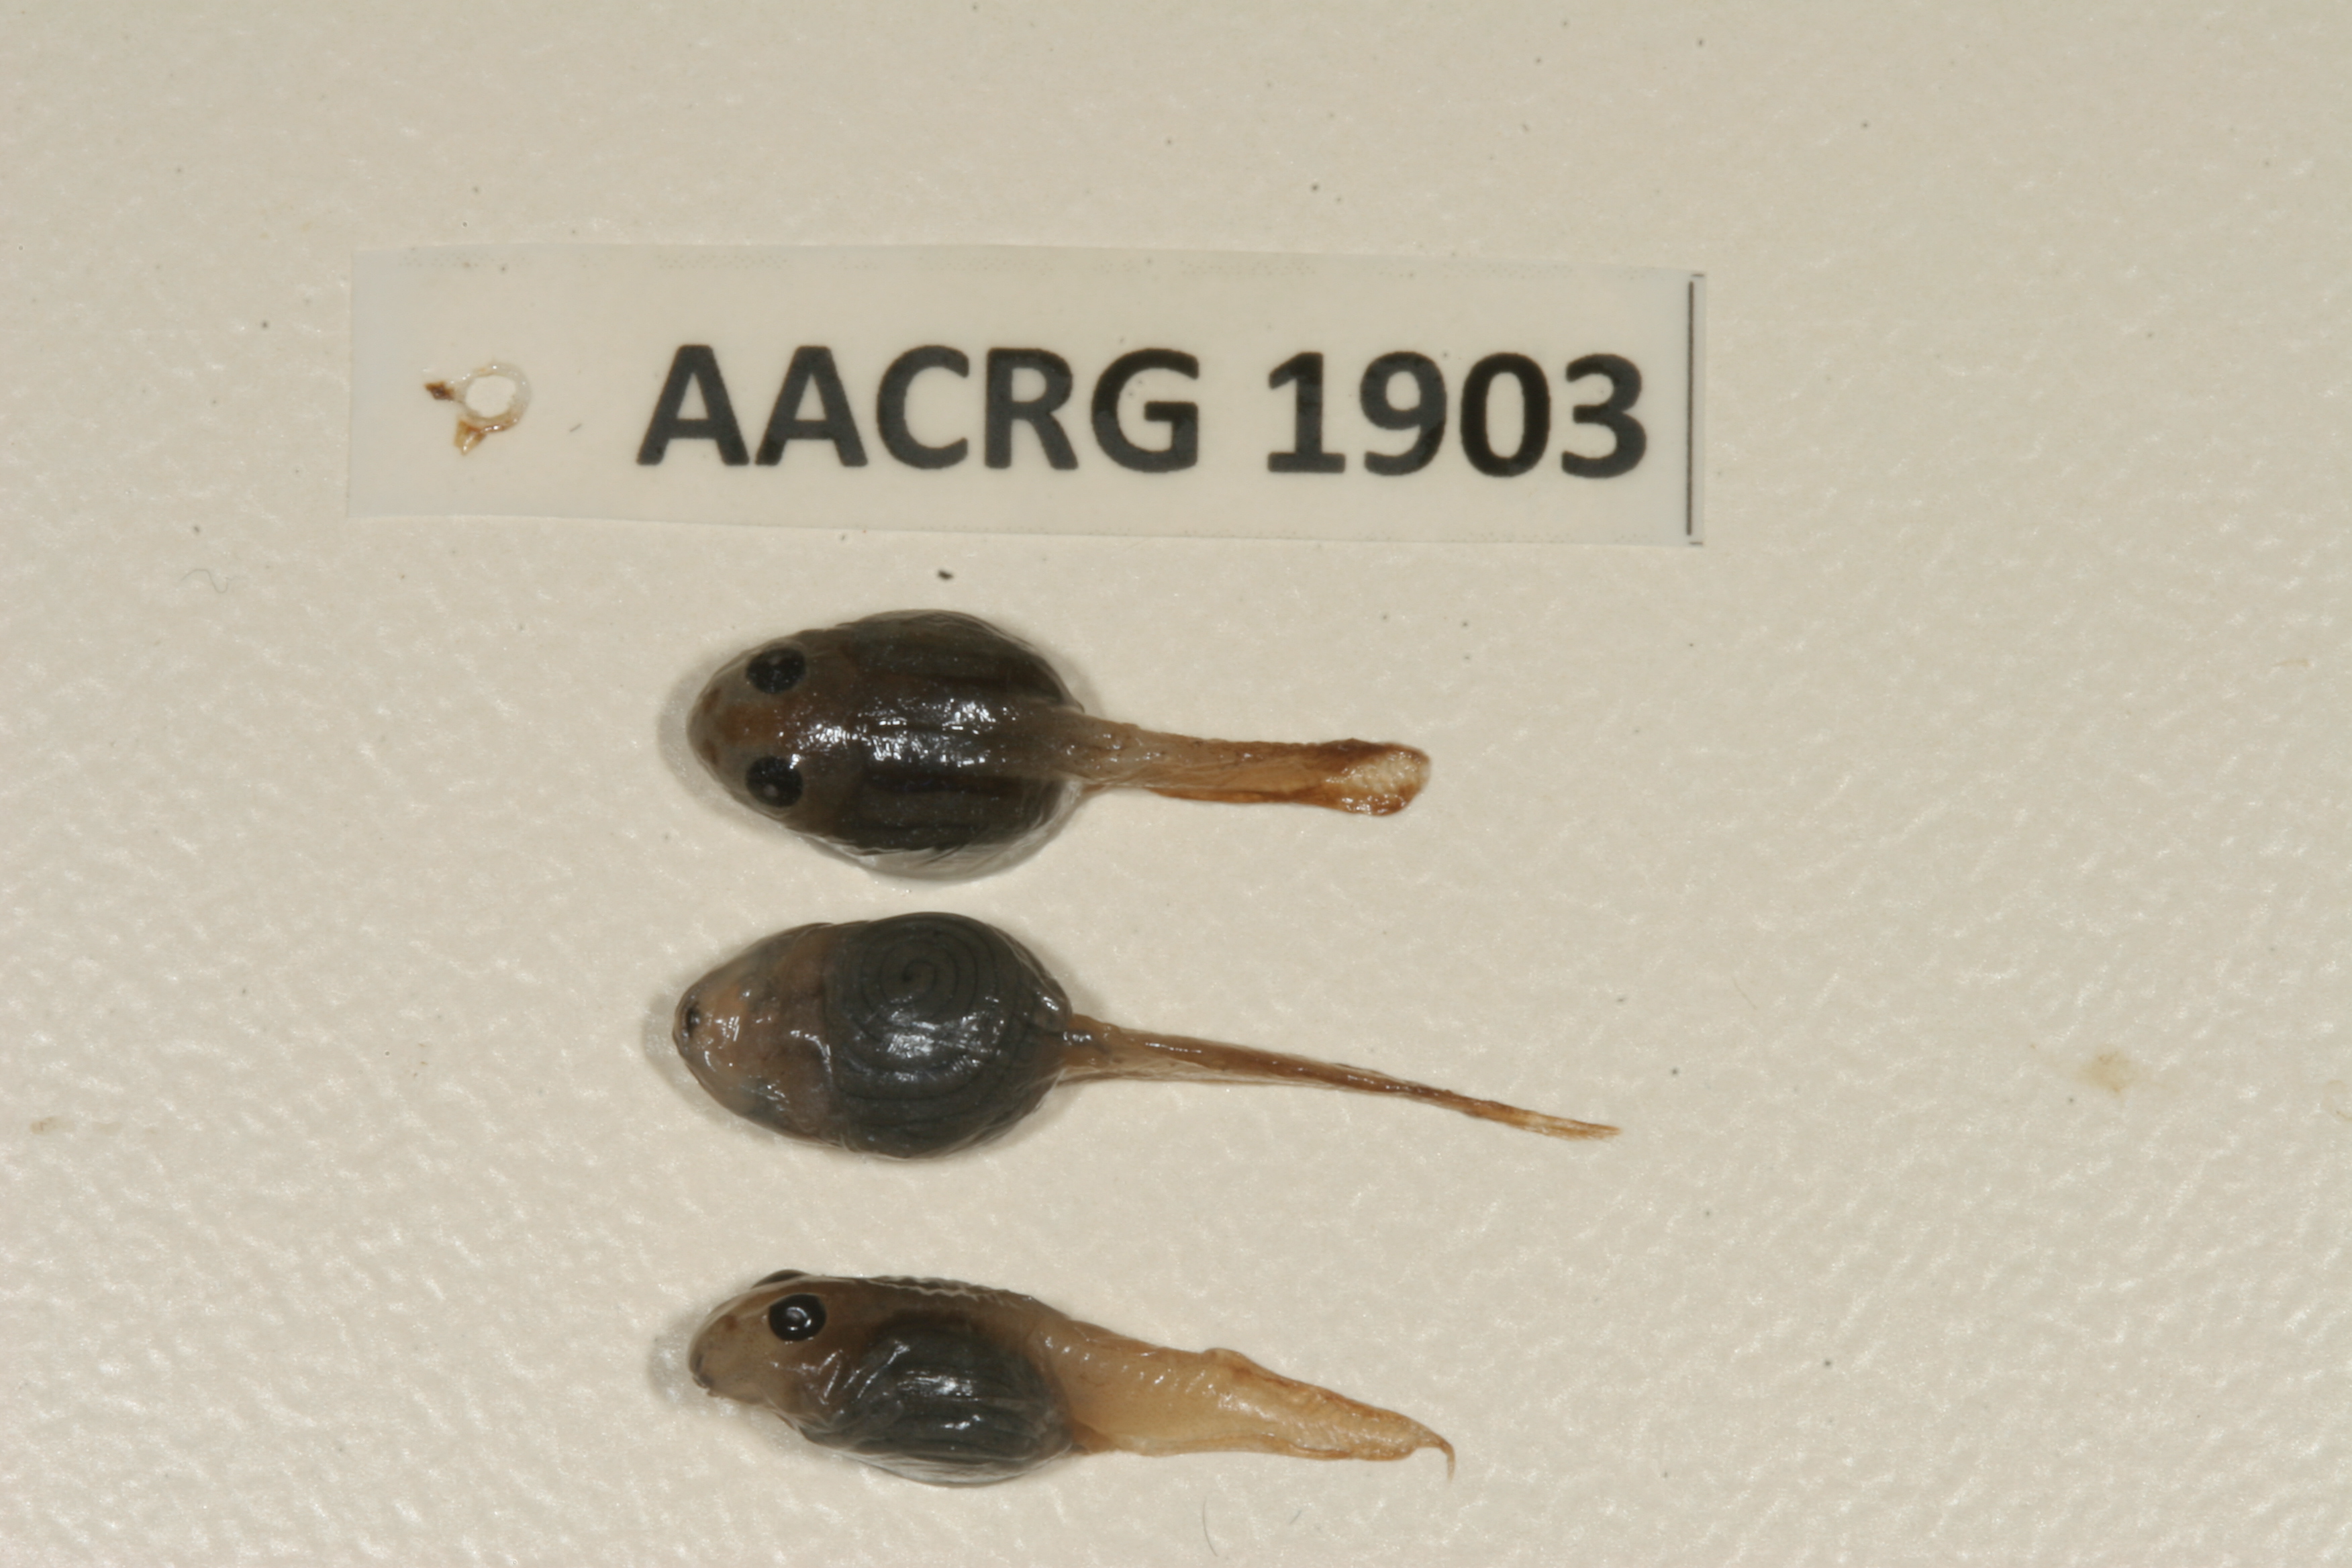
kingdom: Animalia
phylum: Chordata
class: Amphibia
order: Anura
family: Ptychadenidae
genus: Ptychadena
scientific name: Ptychadena mossambica
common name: Mozambique ridged frog
